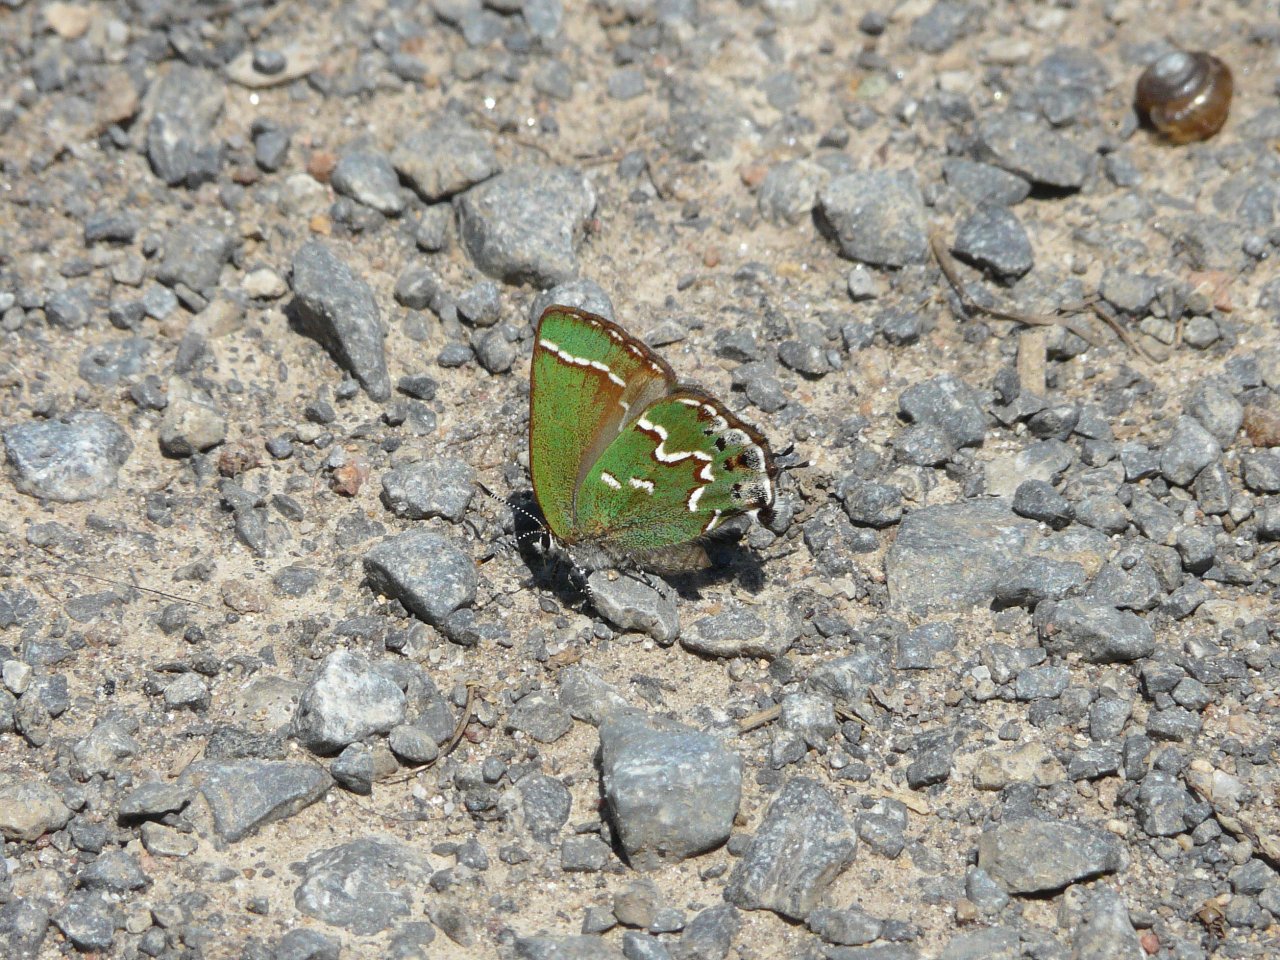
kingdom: Animalia
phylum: Arthropoda
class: Insecta
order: Lepidoptera
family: Lycaenidae
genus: Mitoura
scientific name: Mitoura gryneus
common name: Juniper Hairstreak
